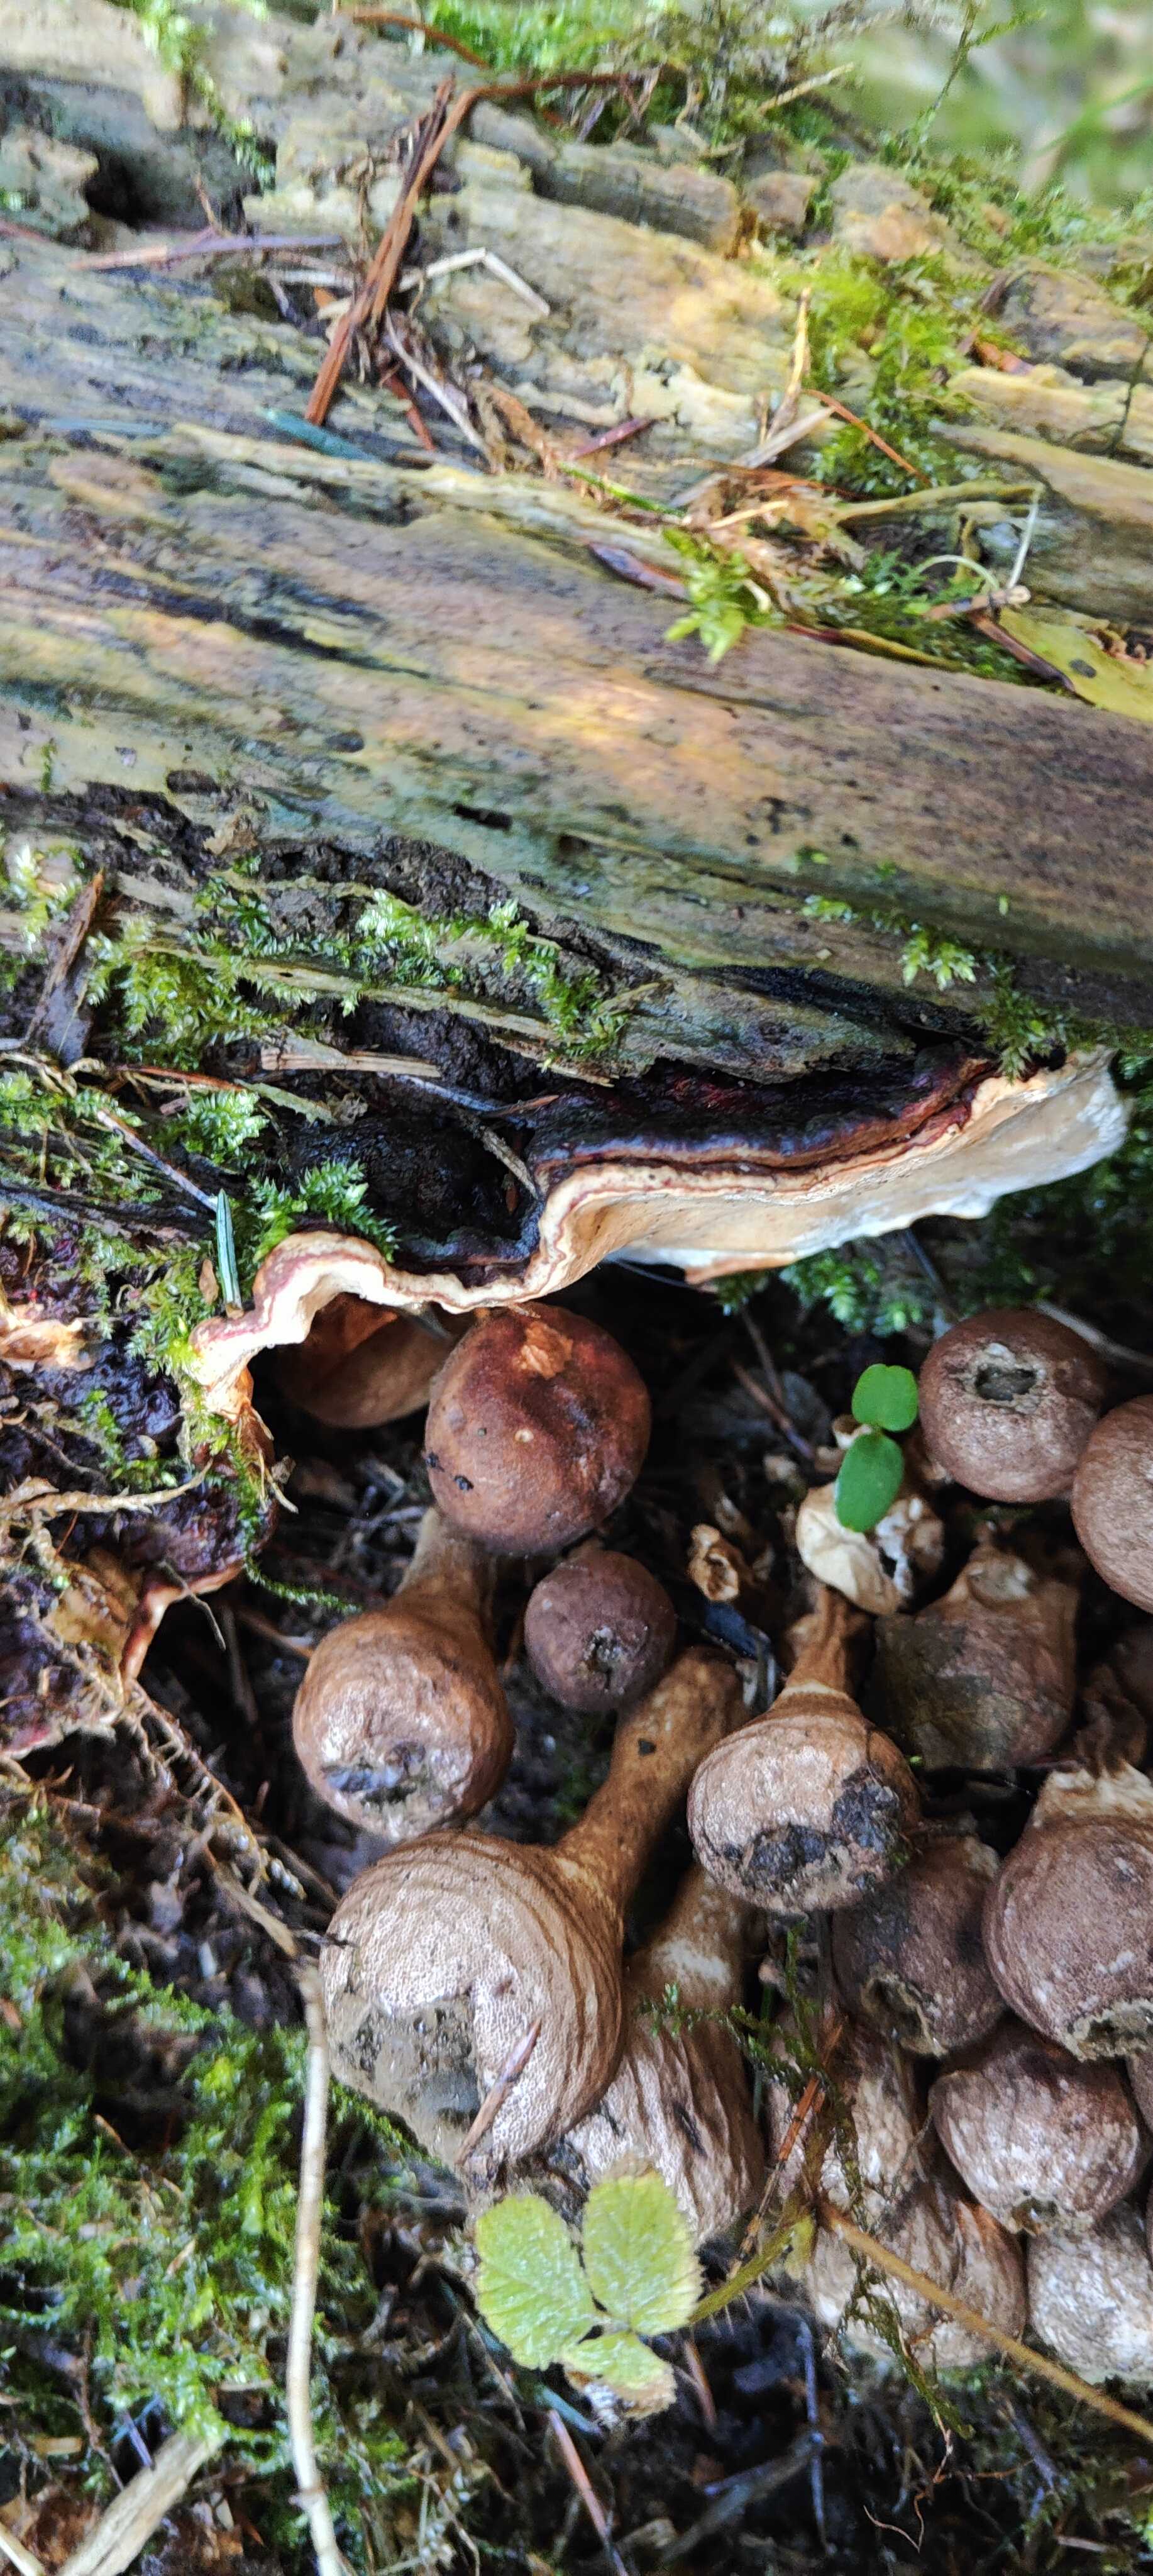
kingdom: Fungi
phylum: Basidiomycota
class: Agaricomycetes
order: Russulales
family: Bondarzewiaceae
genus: Heterobasidion
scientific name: Heterobasidion annosum
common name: almindelig rodfordærver
